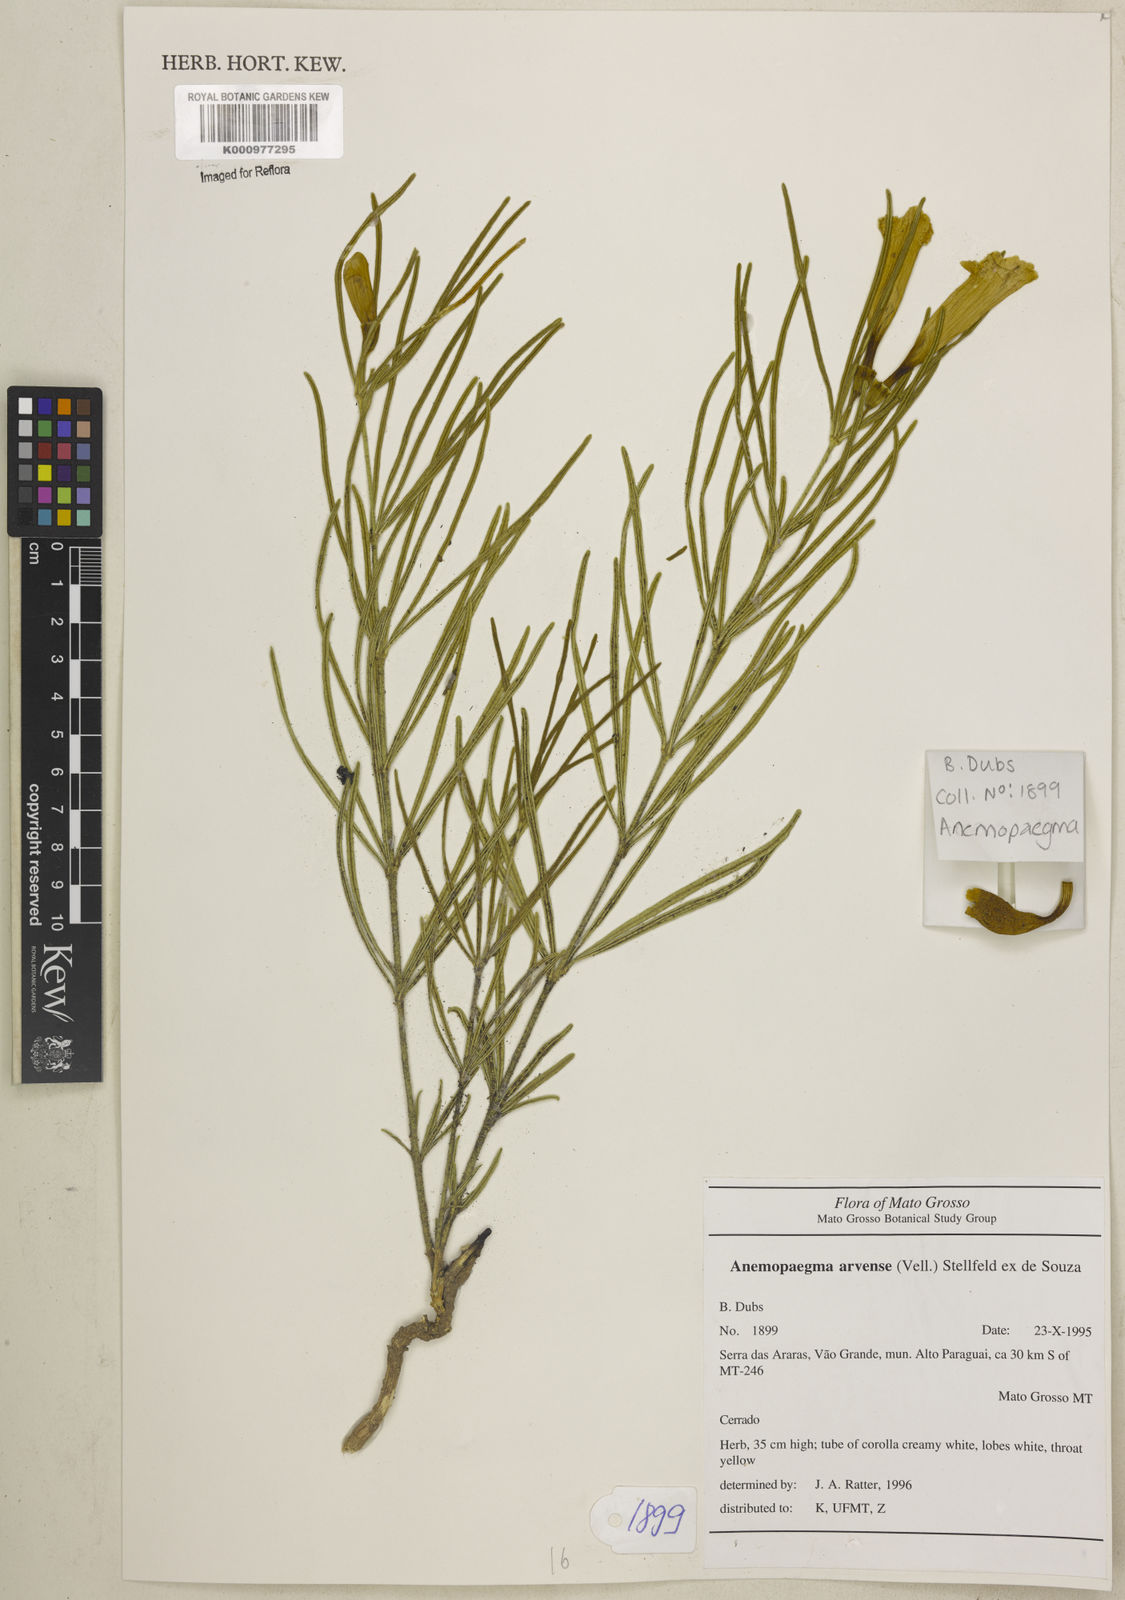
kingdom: Plantae
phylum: Tracheophyta
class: Magnoliopsida
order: Lamiales
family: Bignoniaceae
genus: Anemopaegma
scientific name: Anemopaegma arvense
